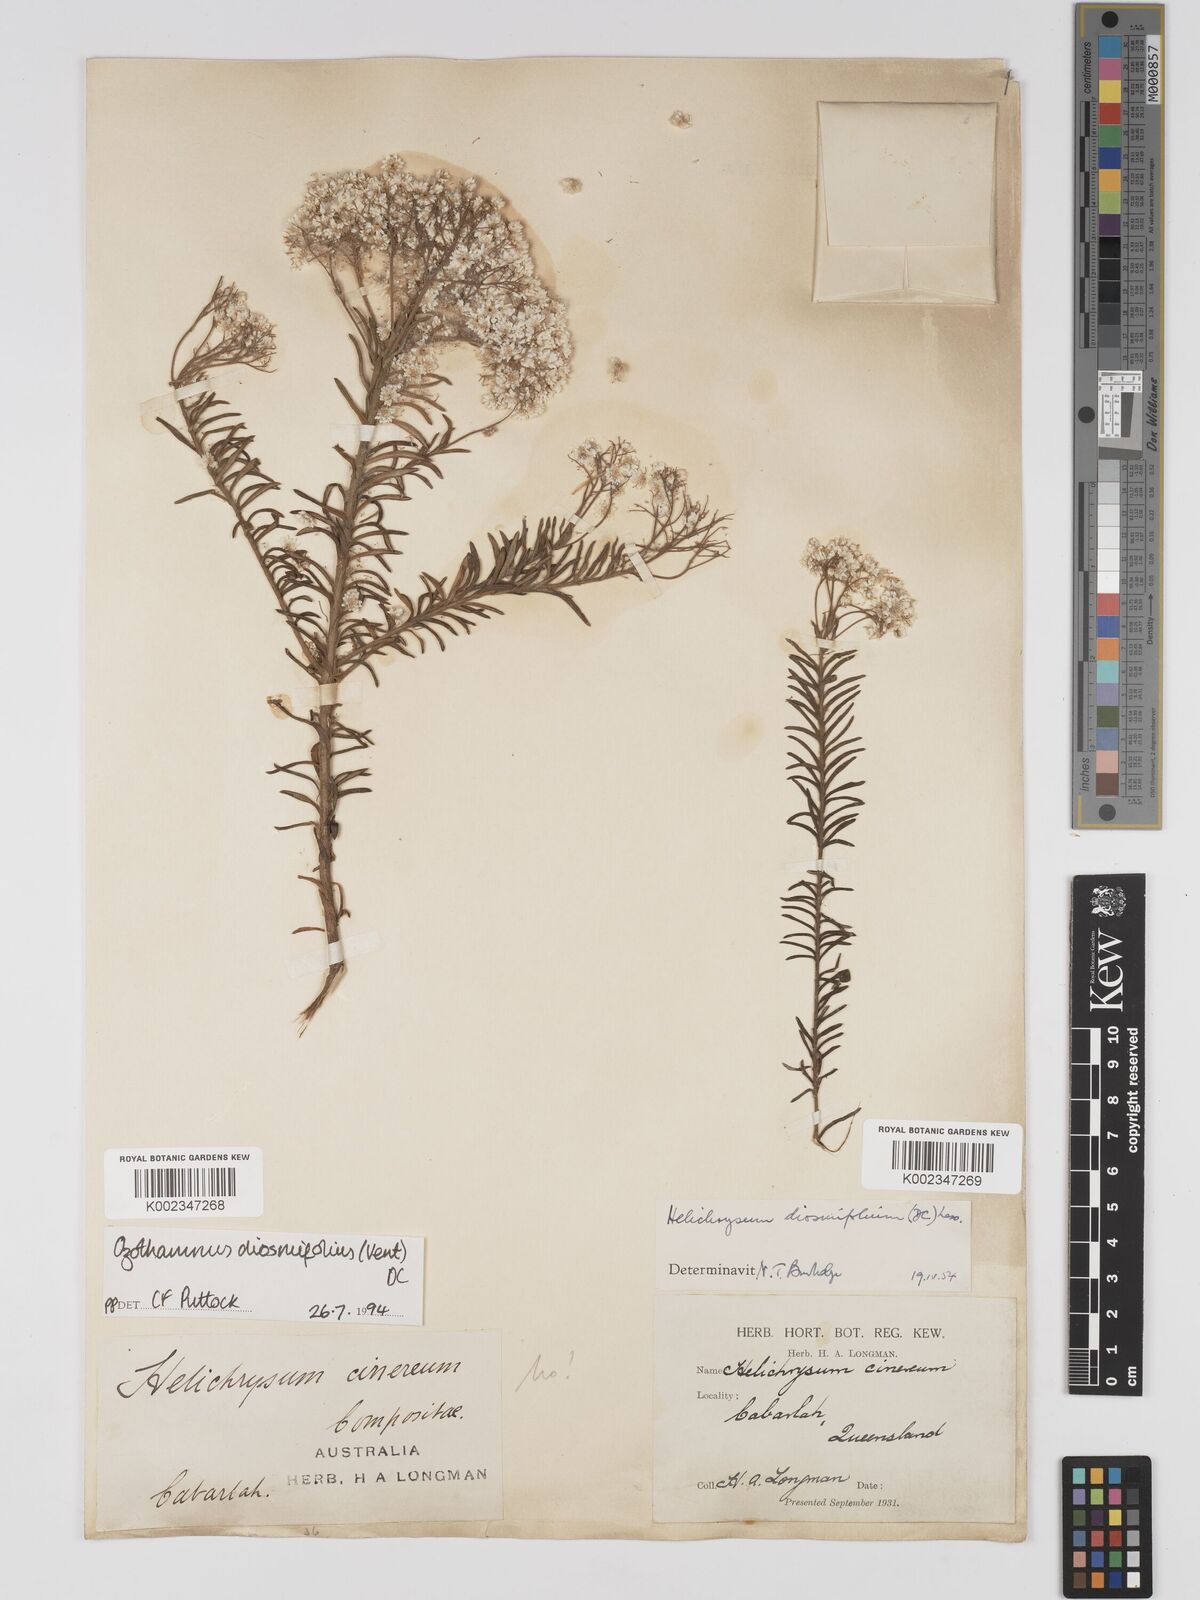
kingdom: Plantae
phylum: Tracheophyta
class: Magnoliopsida
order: Asterales
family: Asteraceae
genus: Ozothamnus
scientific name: Ozothamnus diosmifolius
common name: White-dogwood
